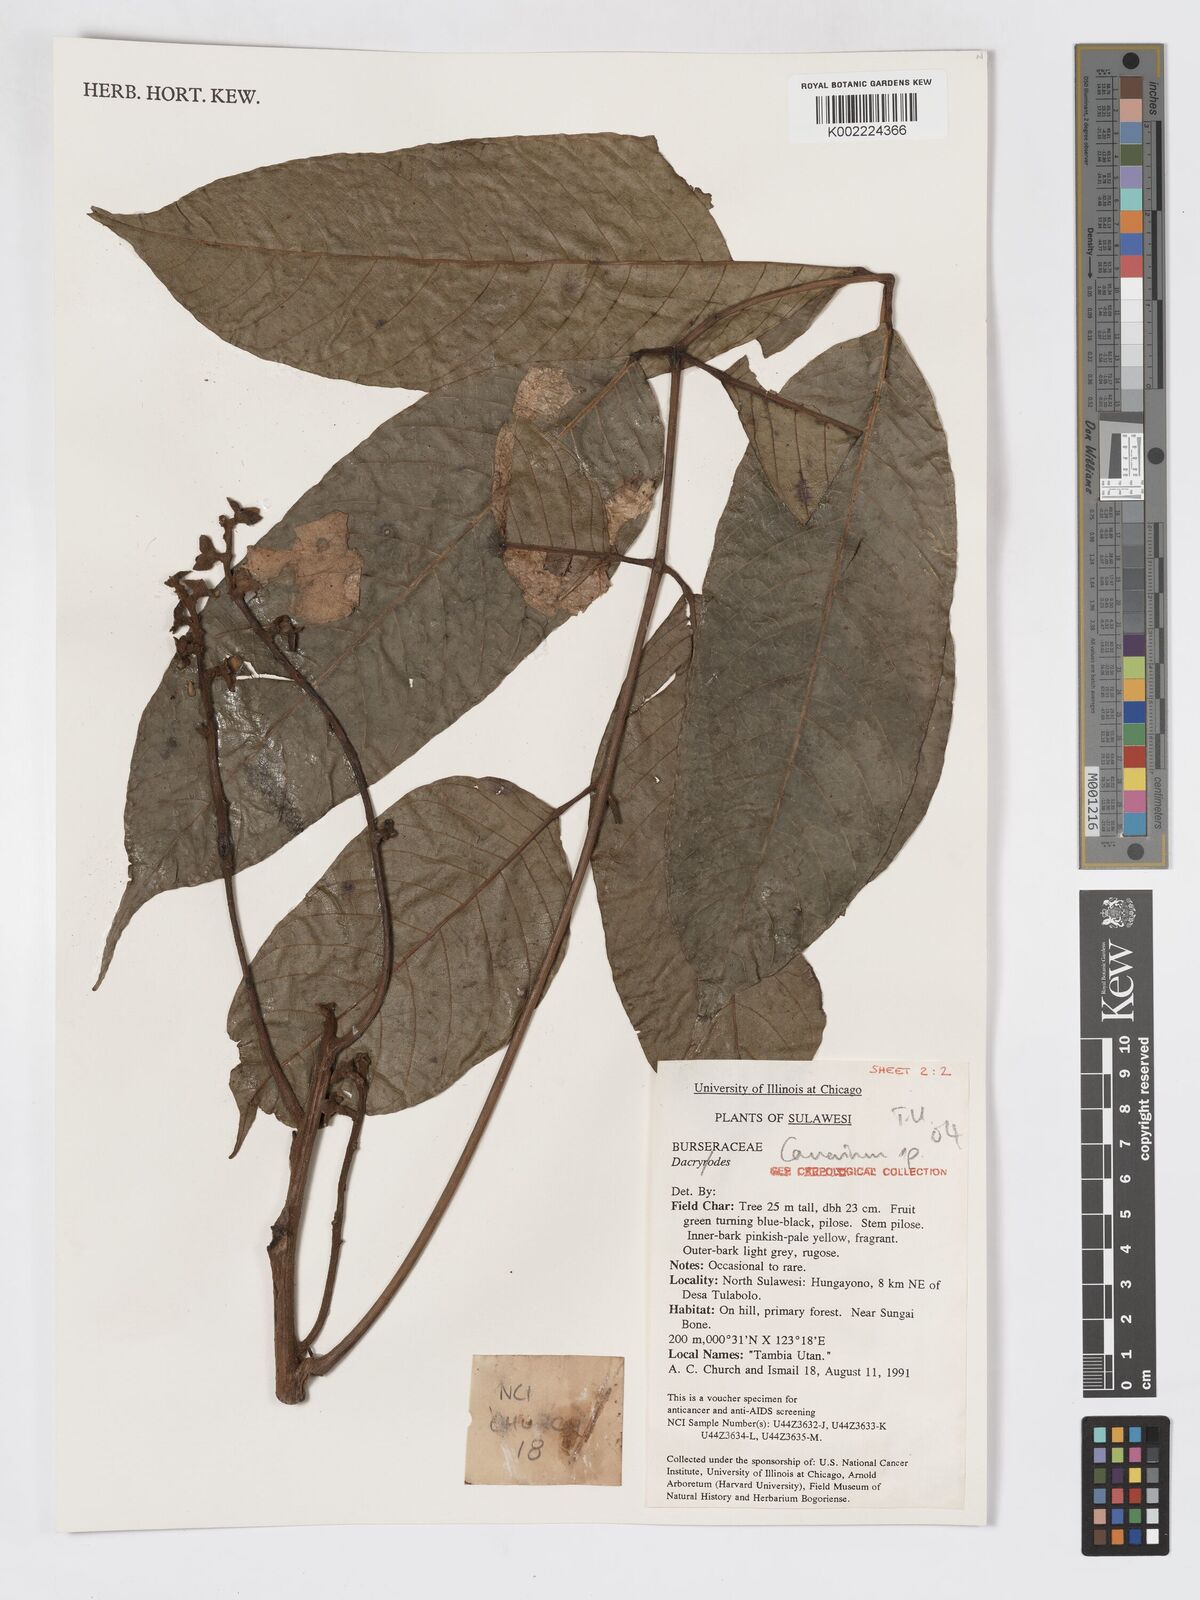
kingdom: Plantae
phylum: Tracheophyta
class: Magnoliopsida
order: Sapindales
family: Burseraceae
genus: Canarium
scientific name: Canarium
